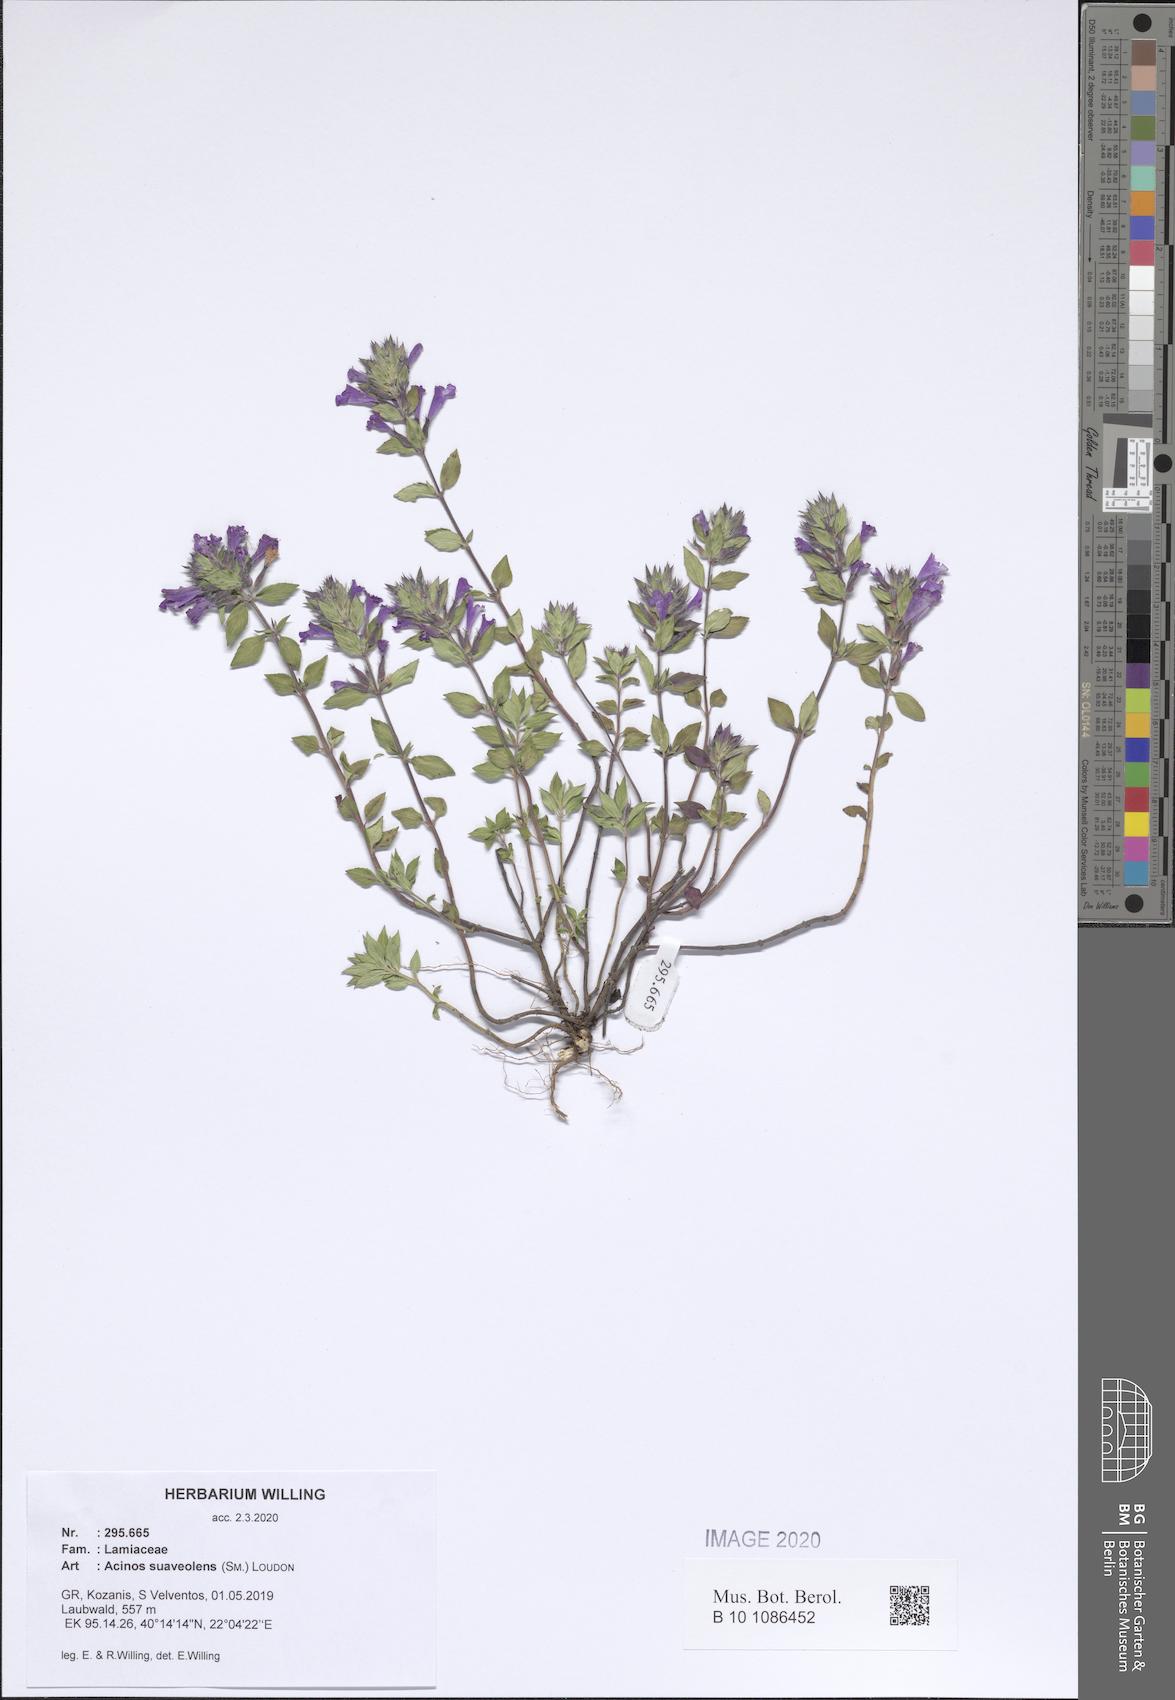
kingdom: Plantae
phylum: Tracheophyta
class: Magnoliopsida
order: Lamiales
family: Lamiaceae
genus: Clinopodium
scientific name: Clinopodium suaveolens
